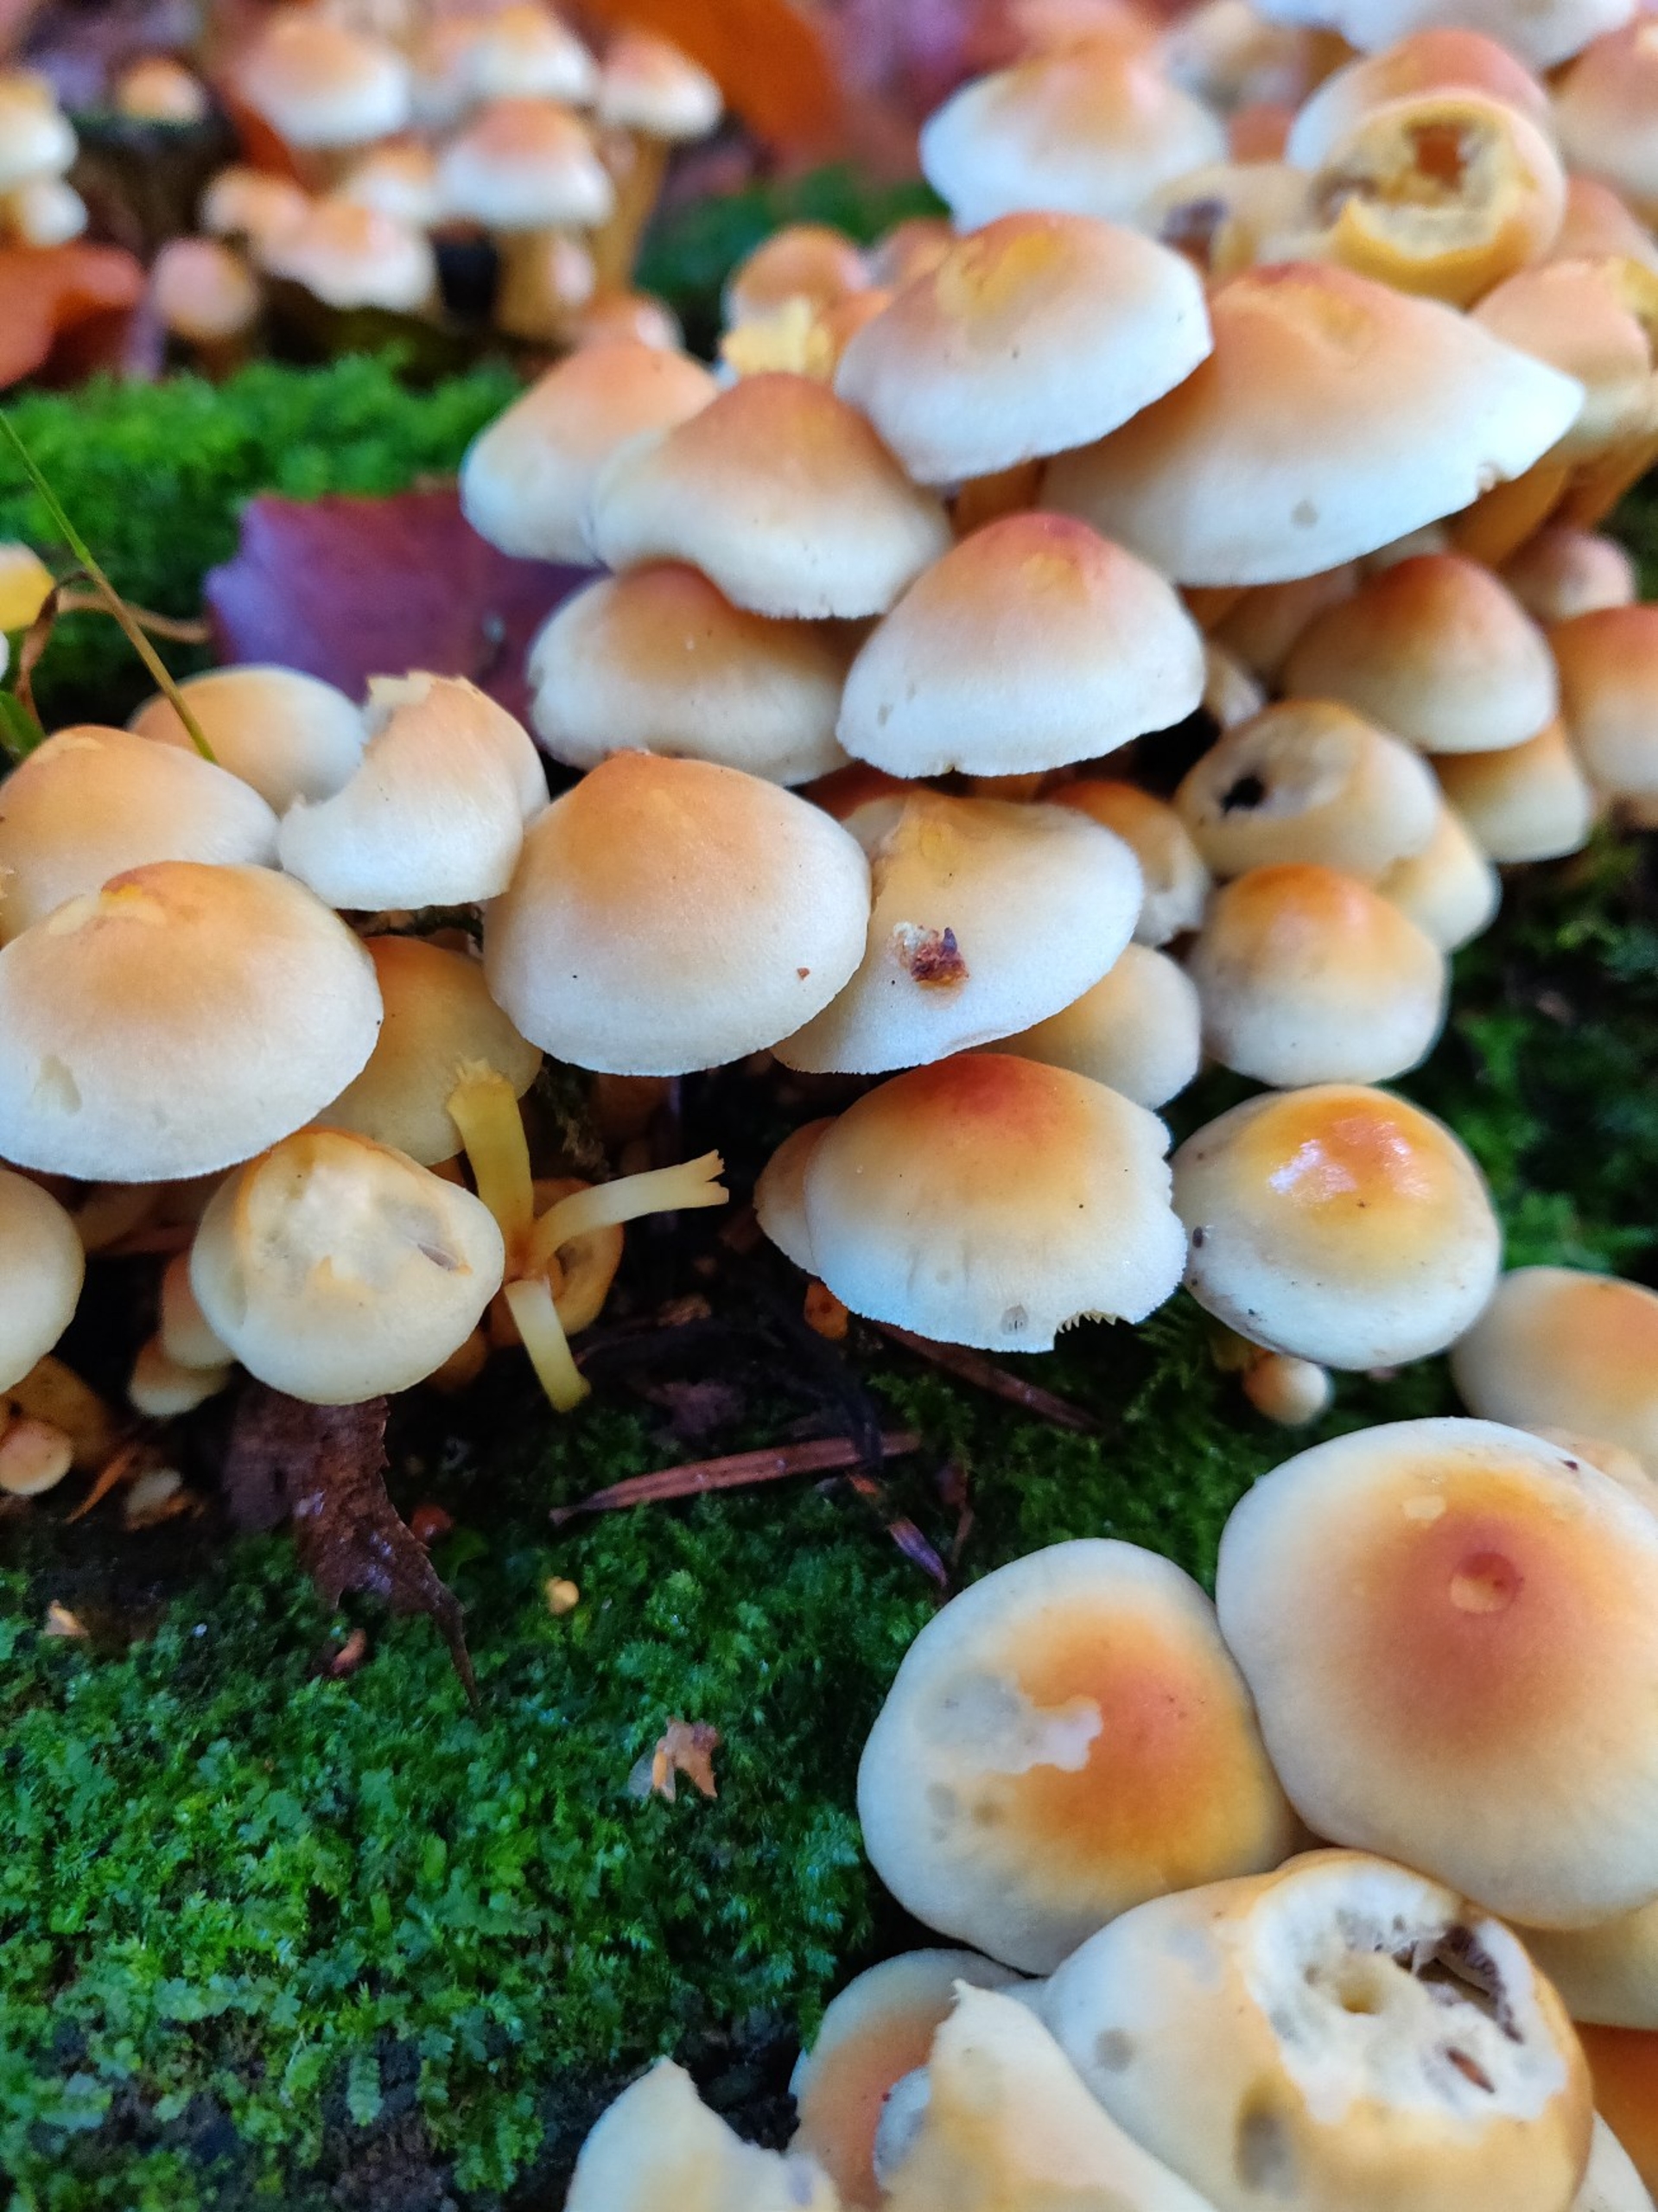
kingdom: Fungi
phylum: Basidiomycota
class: Agaricomycetes
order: Agaricales
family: Strophariaceae
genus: Hypholoma
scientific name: Hypholoma fasciculare
